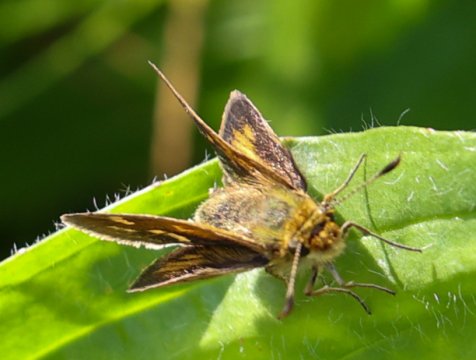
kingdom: Animalia
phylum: Arthropoda
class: Insecta
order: Lepidoptera
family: Hesperiidae
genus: Polites
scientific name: Polites
